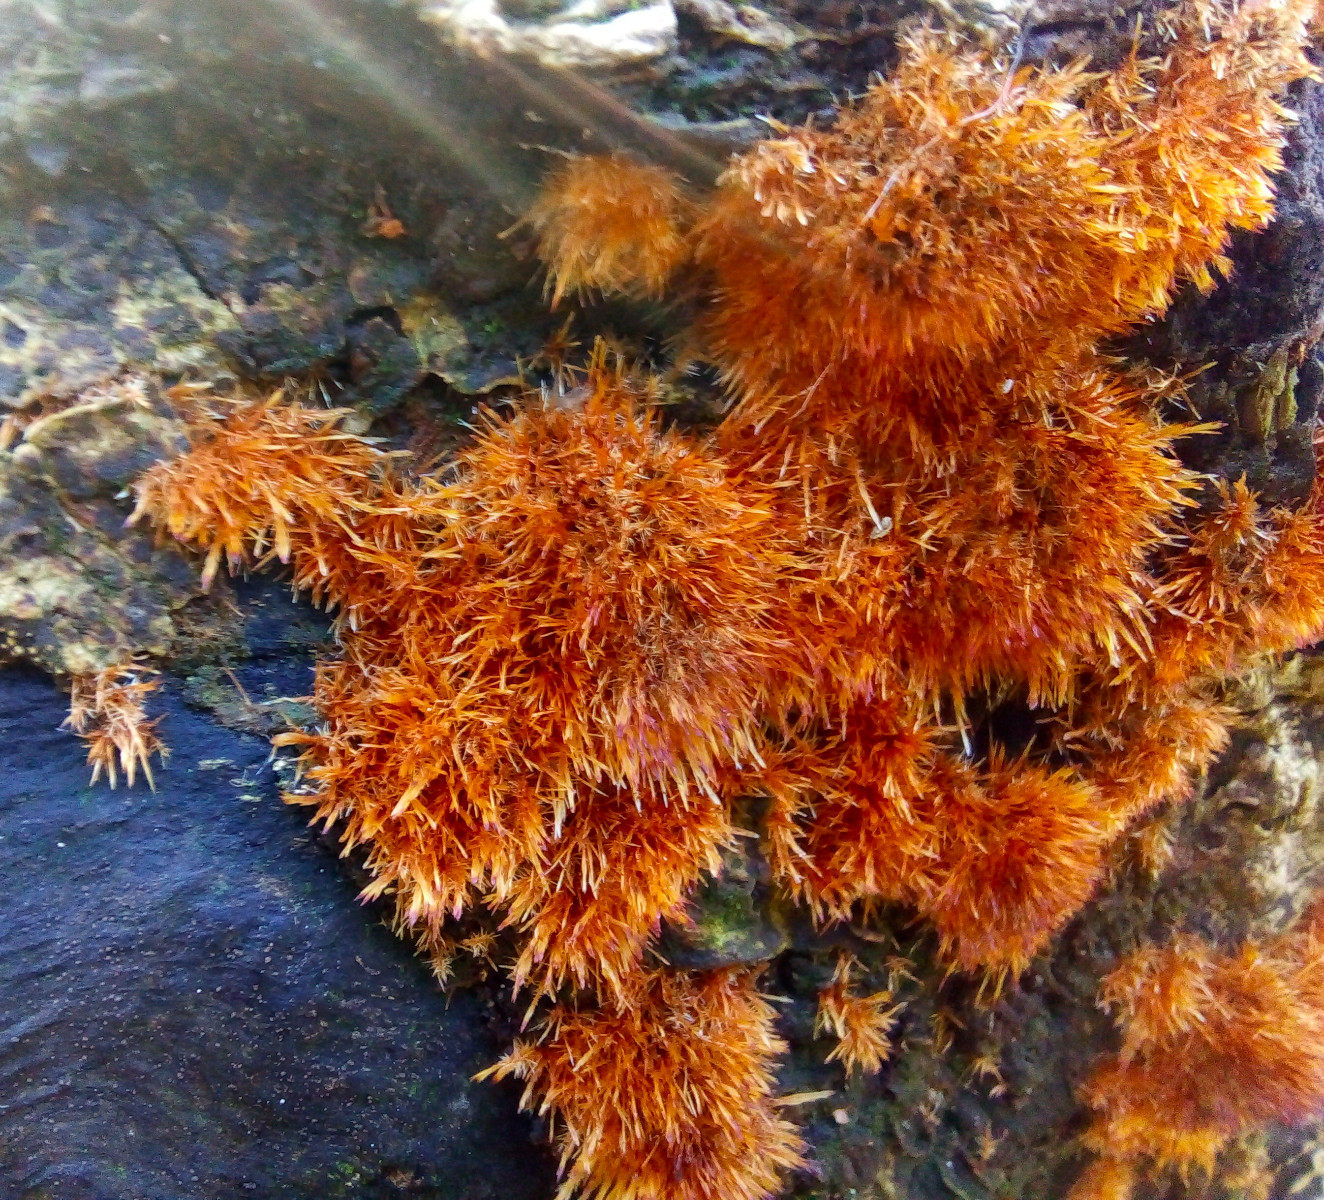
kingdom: Fungi
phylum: Basidiomycota
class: Agaricomycetes
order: Agaricales
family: Psathyrellaceae
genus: Ozonium
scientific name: Ozonium
